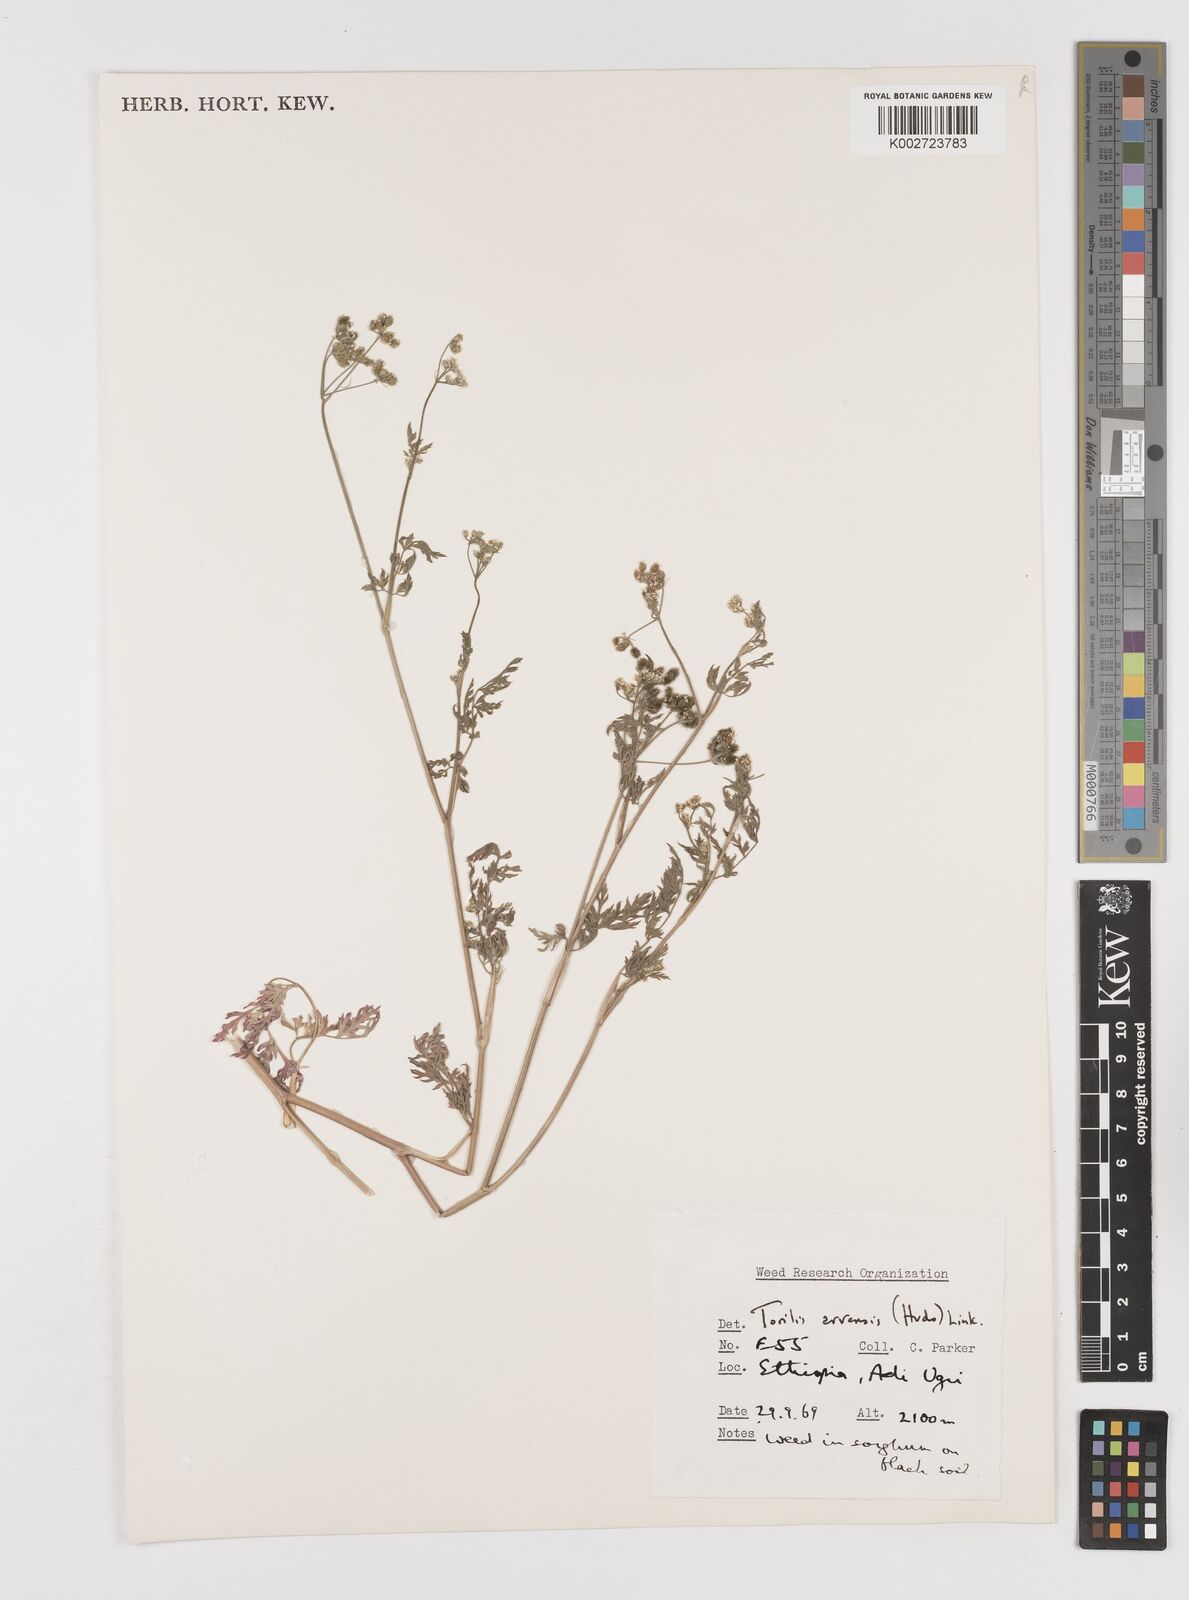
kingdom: Plantae
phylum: Tracheophyta
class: Magnoliopsida
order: Apiales
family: Apiaceae
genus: Torilis
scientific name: Torilis arvensis
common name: Spreading hedge-parsley
